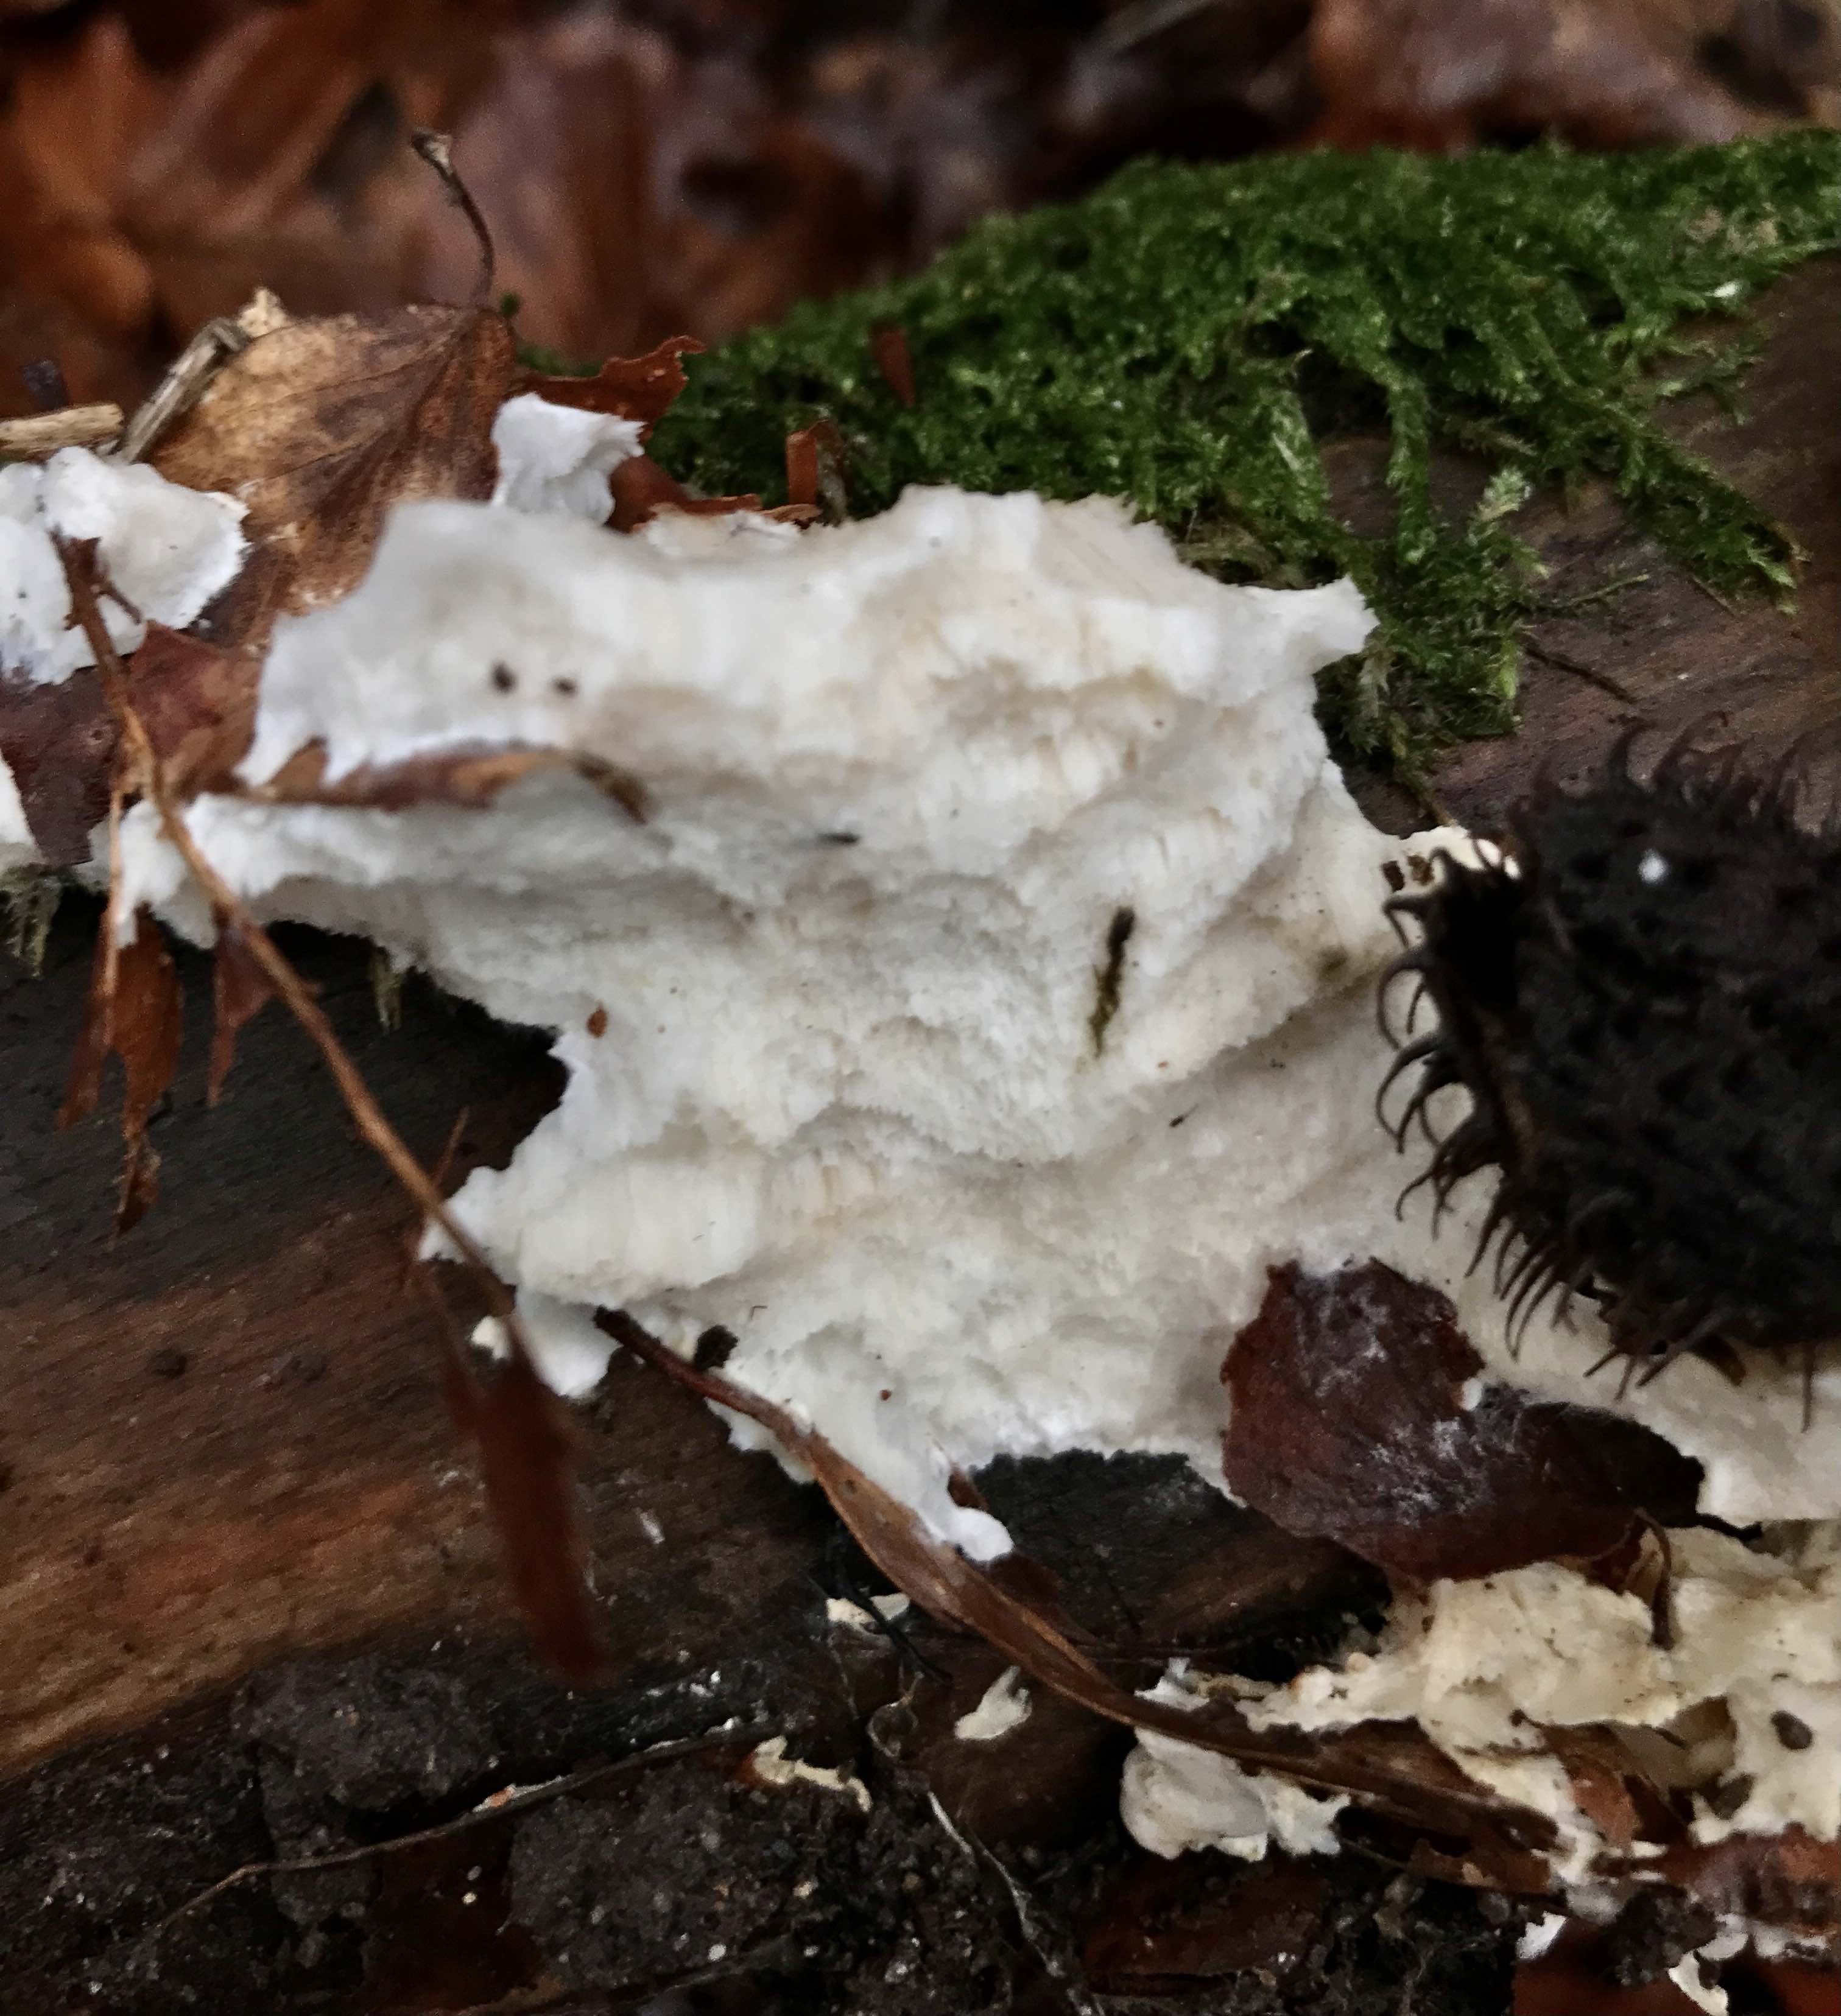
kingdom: Fungi
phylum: Basidiomycota
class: Agaricomycetes
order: Polyporales
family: Incrustoporiaceae
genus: Tyromyces
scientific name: Tyromyces lacteus
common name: mælkehvid kødporesvamp
